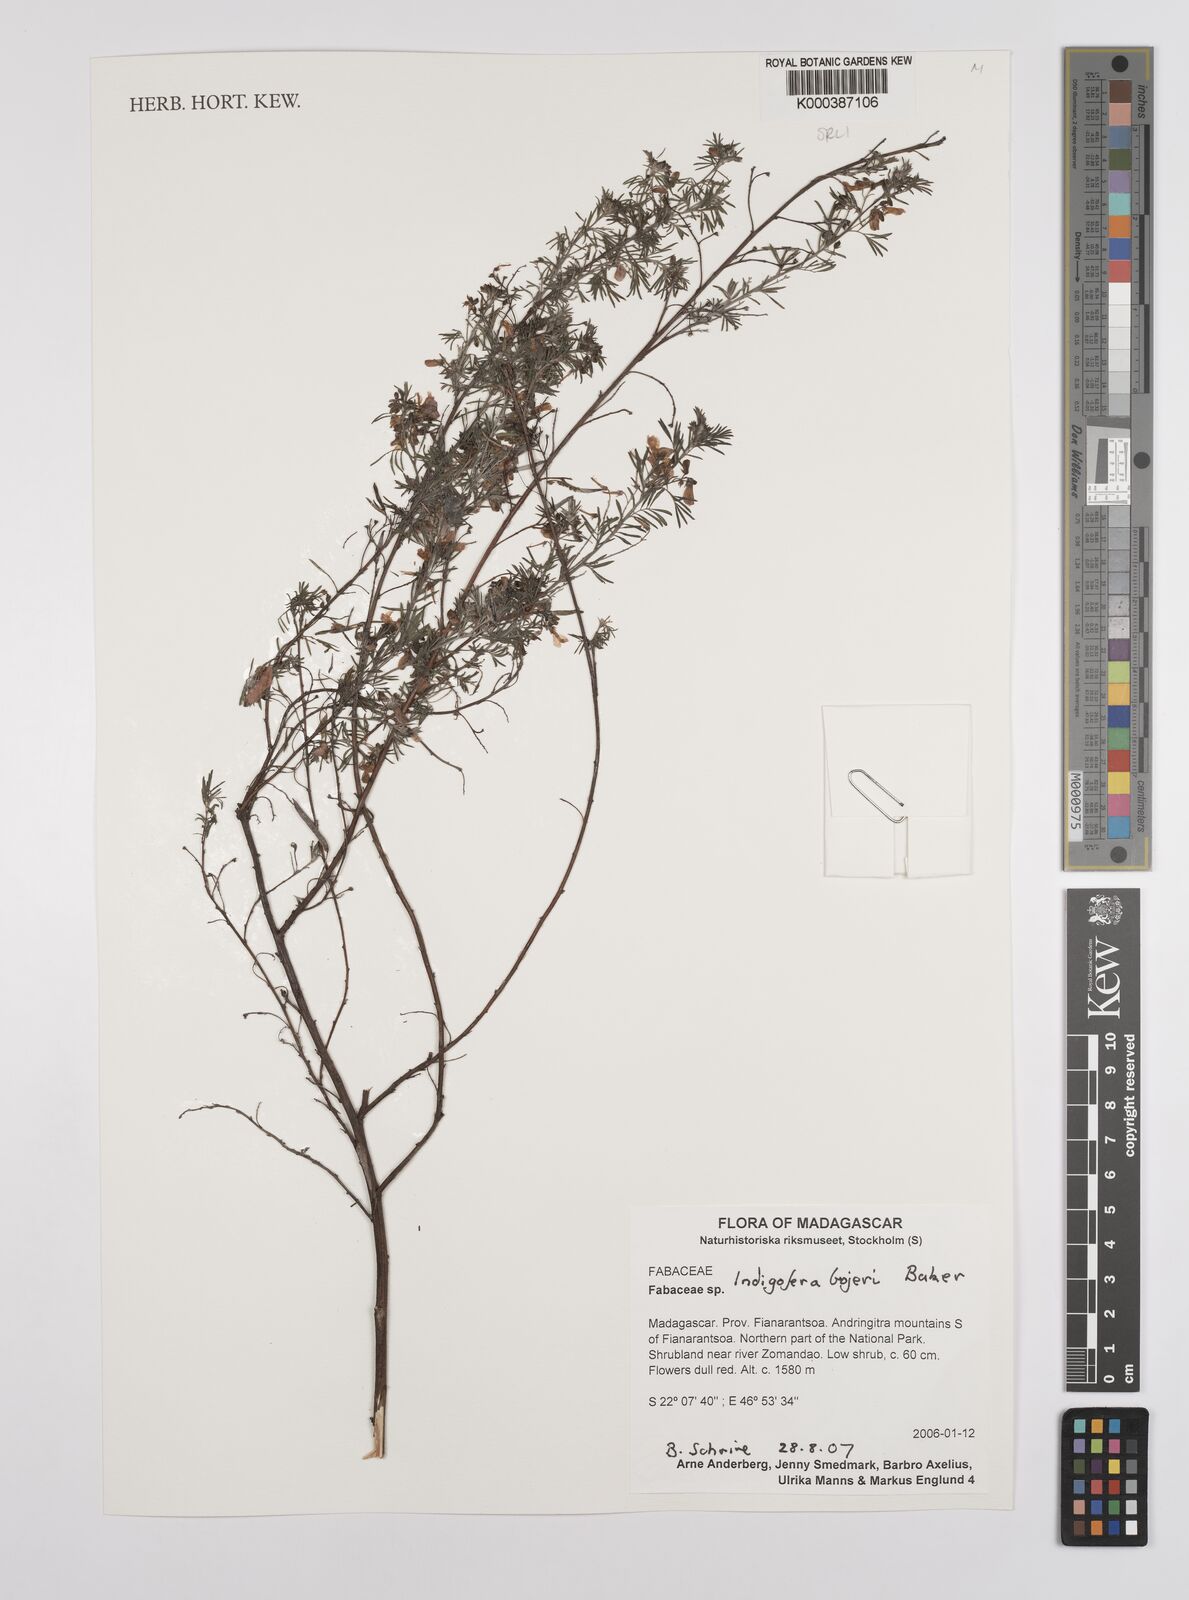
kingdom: Plantae
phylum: Tracheophyta
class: Magnoliopsida
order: Fabales
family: Fabaceae
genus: Indigofera
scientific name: Indigofera bojeri
